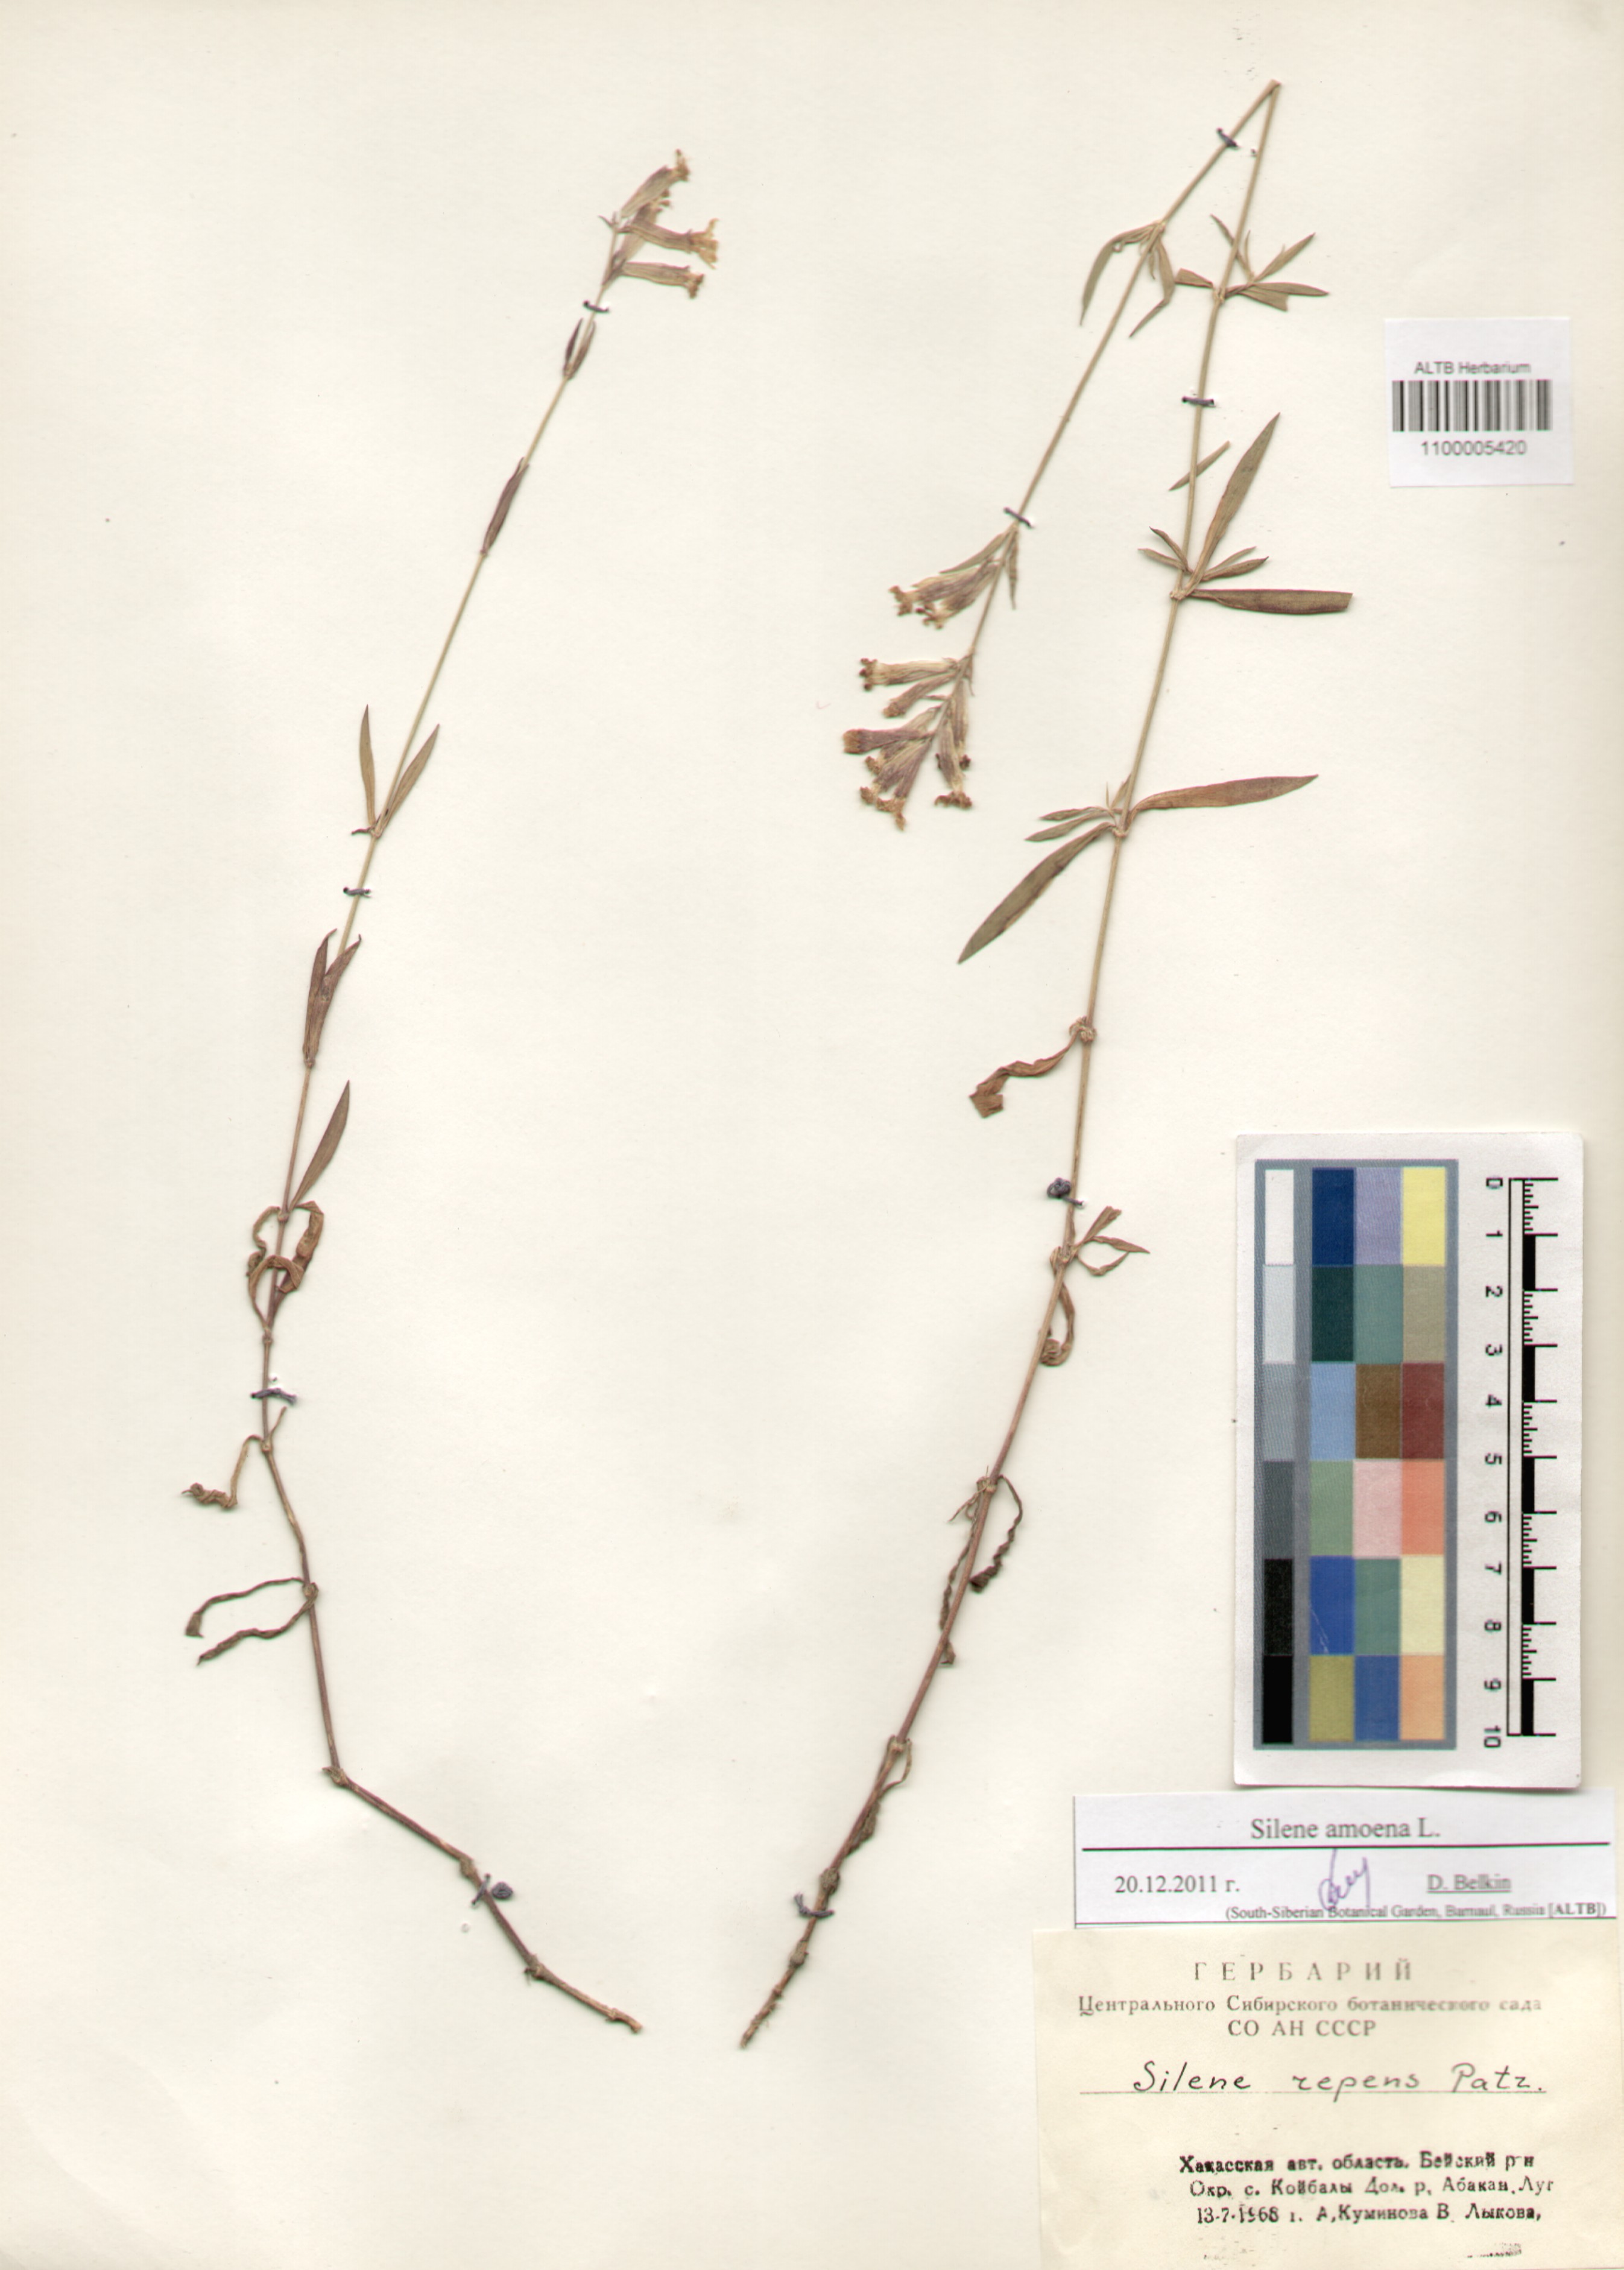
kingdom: Plantae
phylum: Tracheophyta
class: Magnoliopsida
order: Caryophyllales
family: Caryophyllaceae
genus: Silene
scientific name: Silene amoena
